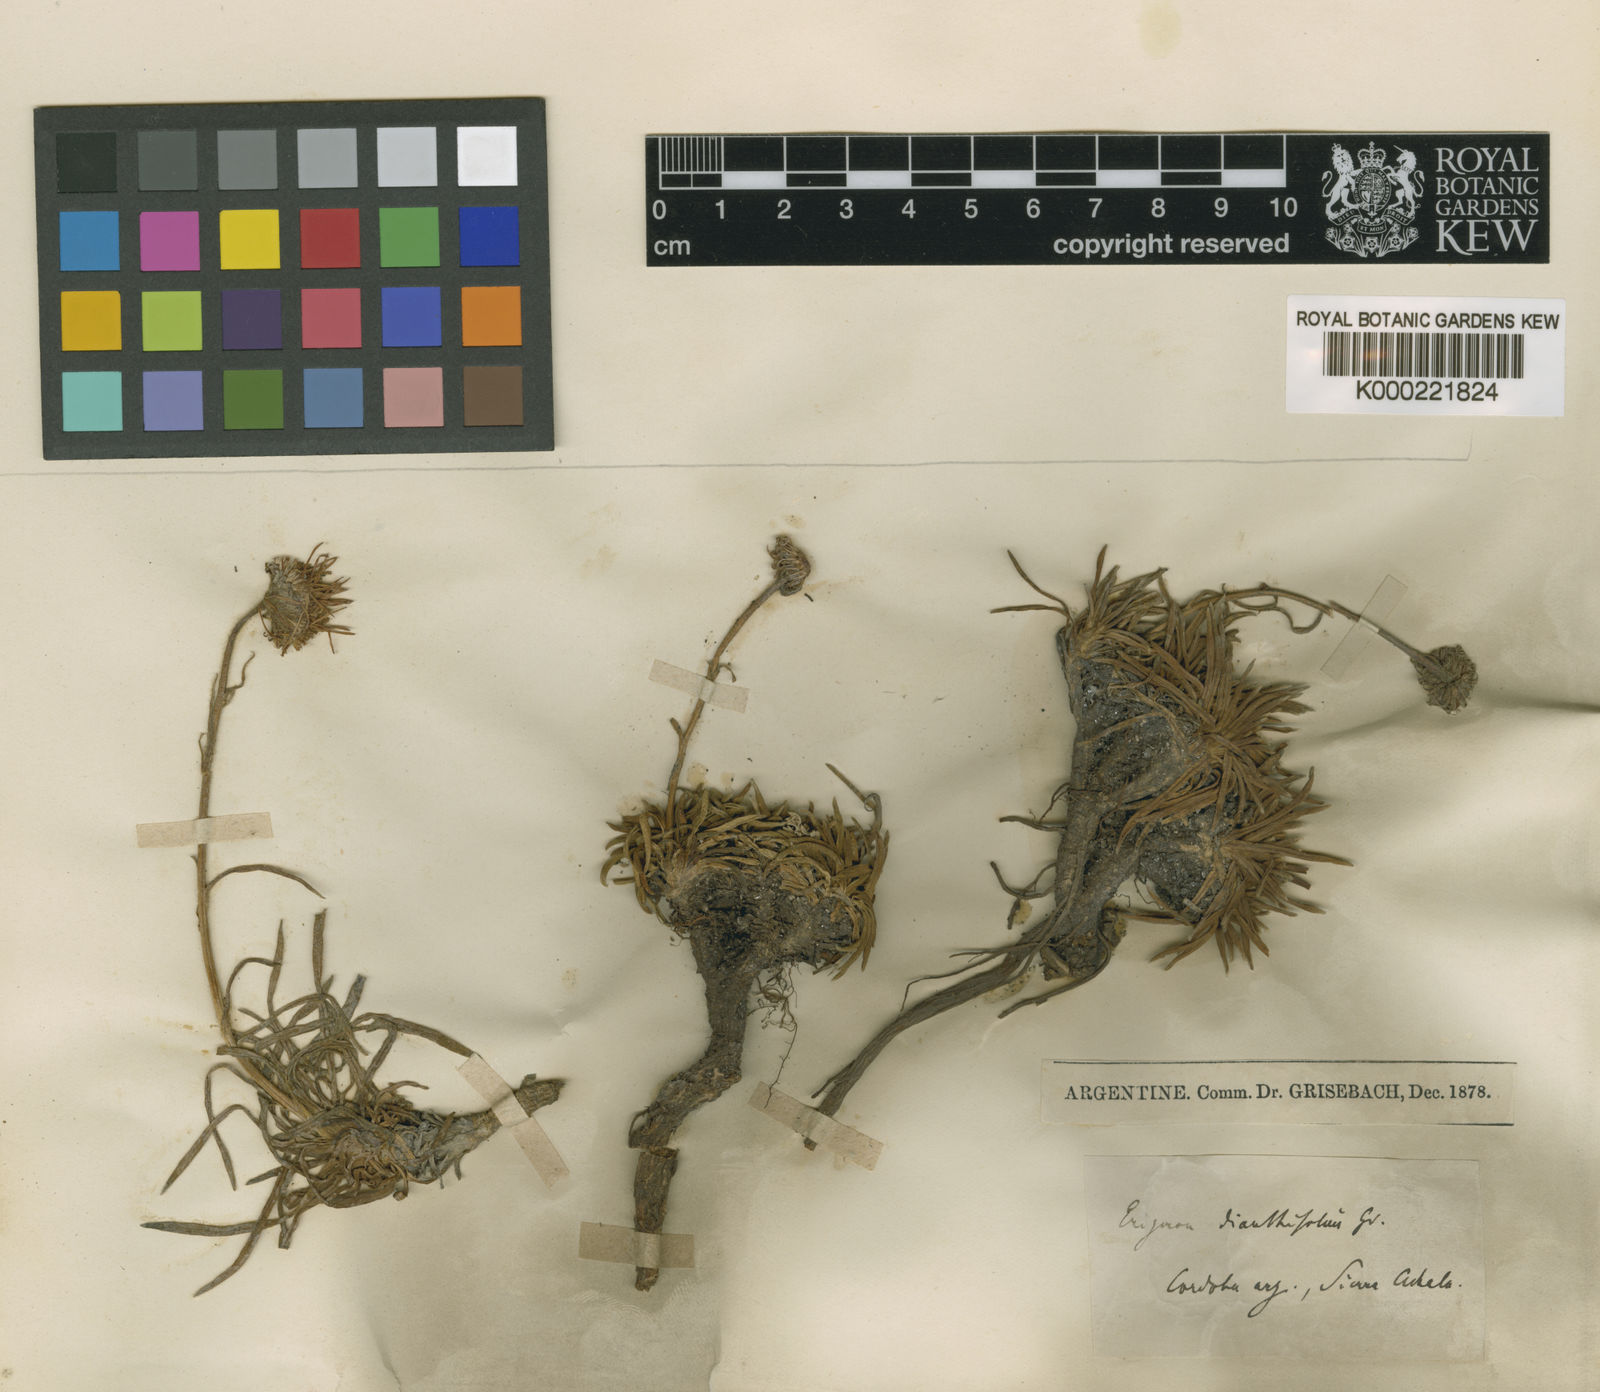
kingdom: Plantae
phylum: Tracheophyta
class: Magnoliopsida
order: Asterales
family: Asteraceae
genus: Neja
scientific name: Neja dianthifolia
